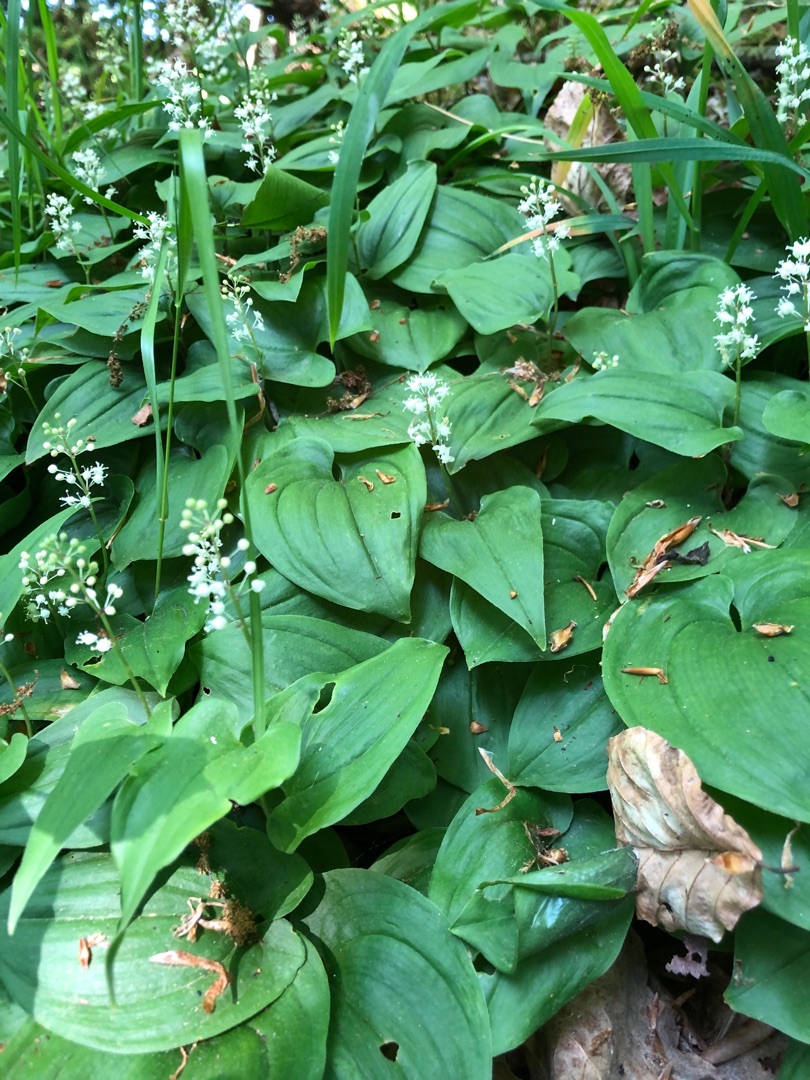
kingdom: Plantae
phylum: Tracheophyta
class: Liliopsida
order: Asparagales
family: Asparagaceae
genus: Maianthemum
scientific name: Maianthemum bifolium
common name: Majblomst
